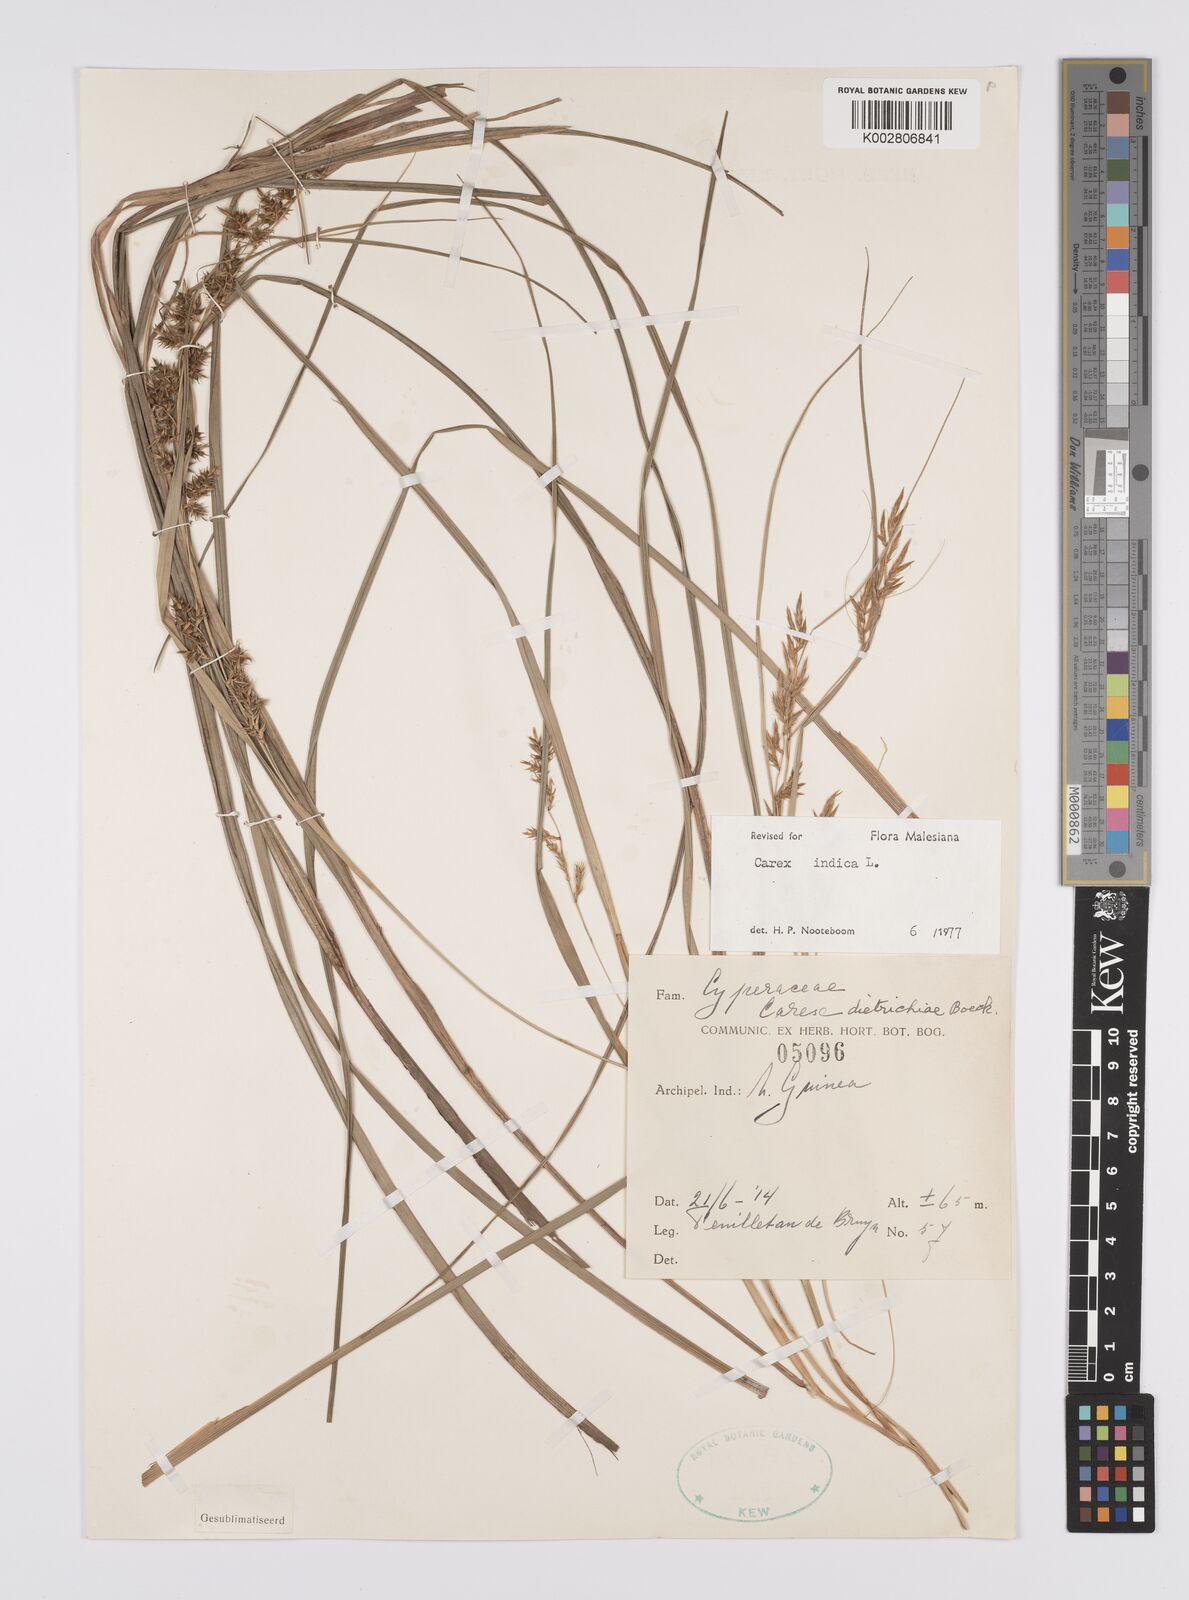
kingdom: Plantae
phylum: Tracheophyta
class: Liliopsida
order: Poales
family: Cyperaceae
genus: Carex
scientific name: Carex indica
